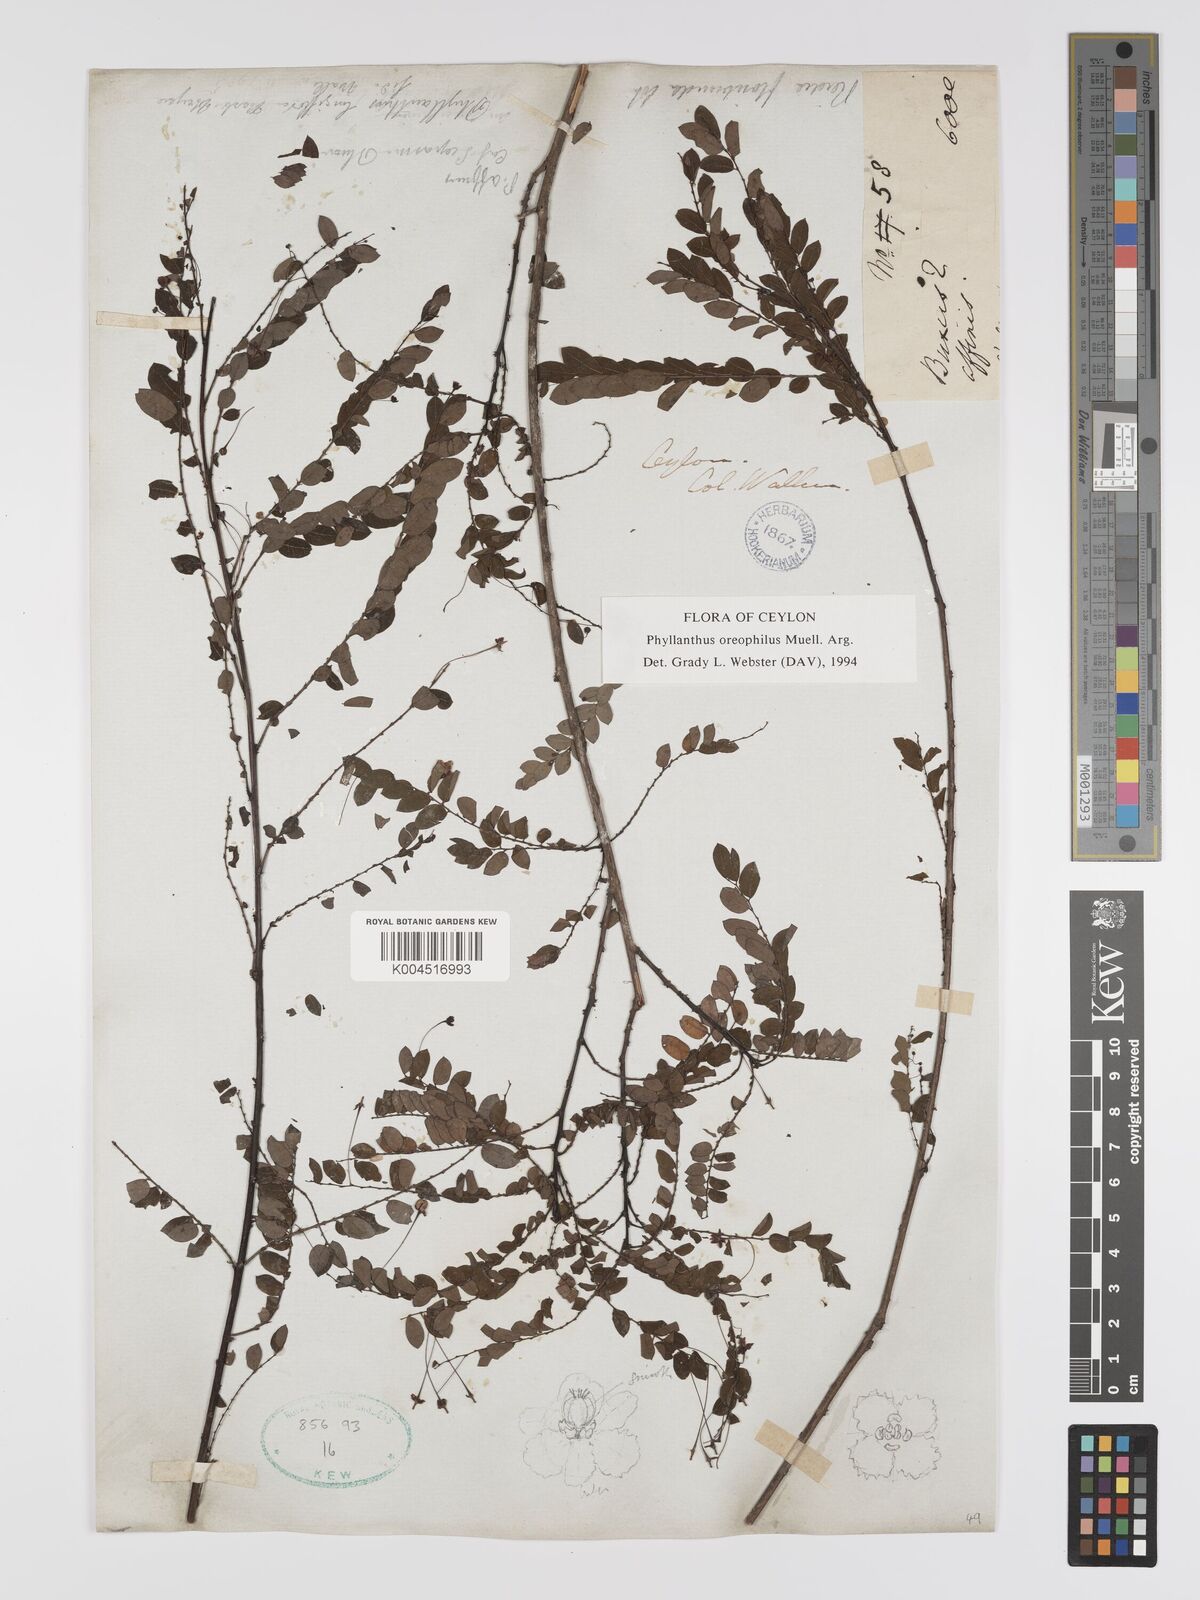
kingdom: Plantae
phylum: Tracheophyta
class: Magnoliopsida
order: Malpighiales
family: Phyllanthaceae
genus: Phyllanthus
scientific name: Phyllanthus oreophilus
